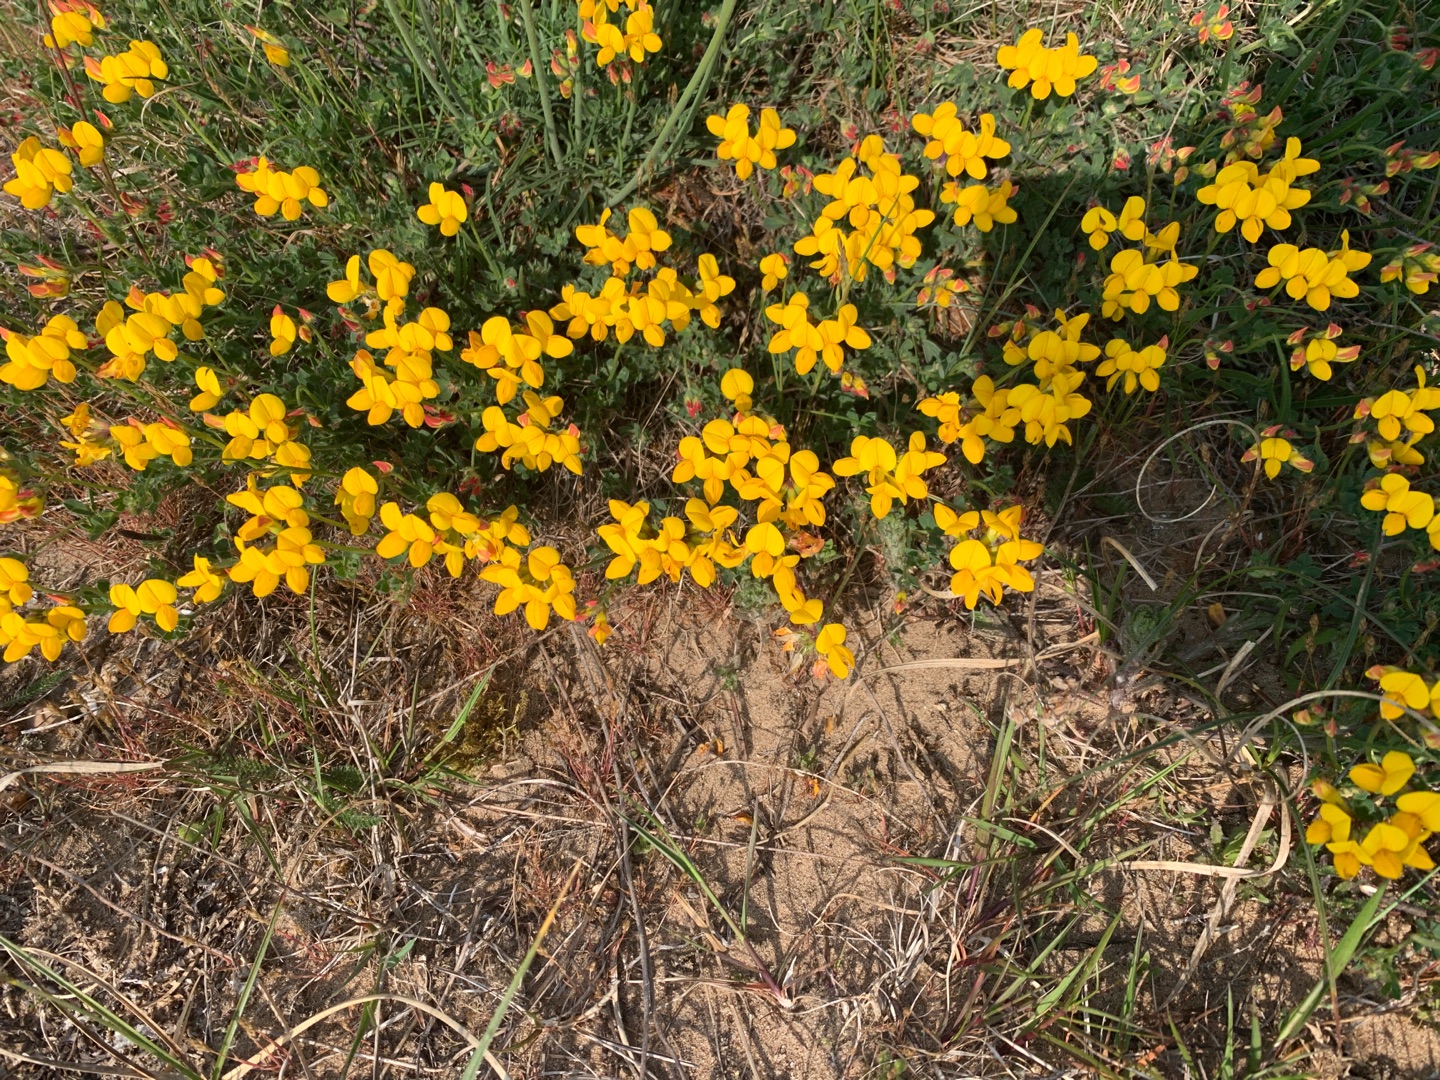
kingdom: Plantae
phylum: Tracheophyta
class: Magnoliopsida
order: Fabales
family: Fabaceae
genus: Lotus
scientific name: Lotus corniculatus
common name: Almindelig kællingetand
